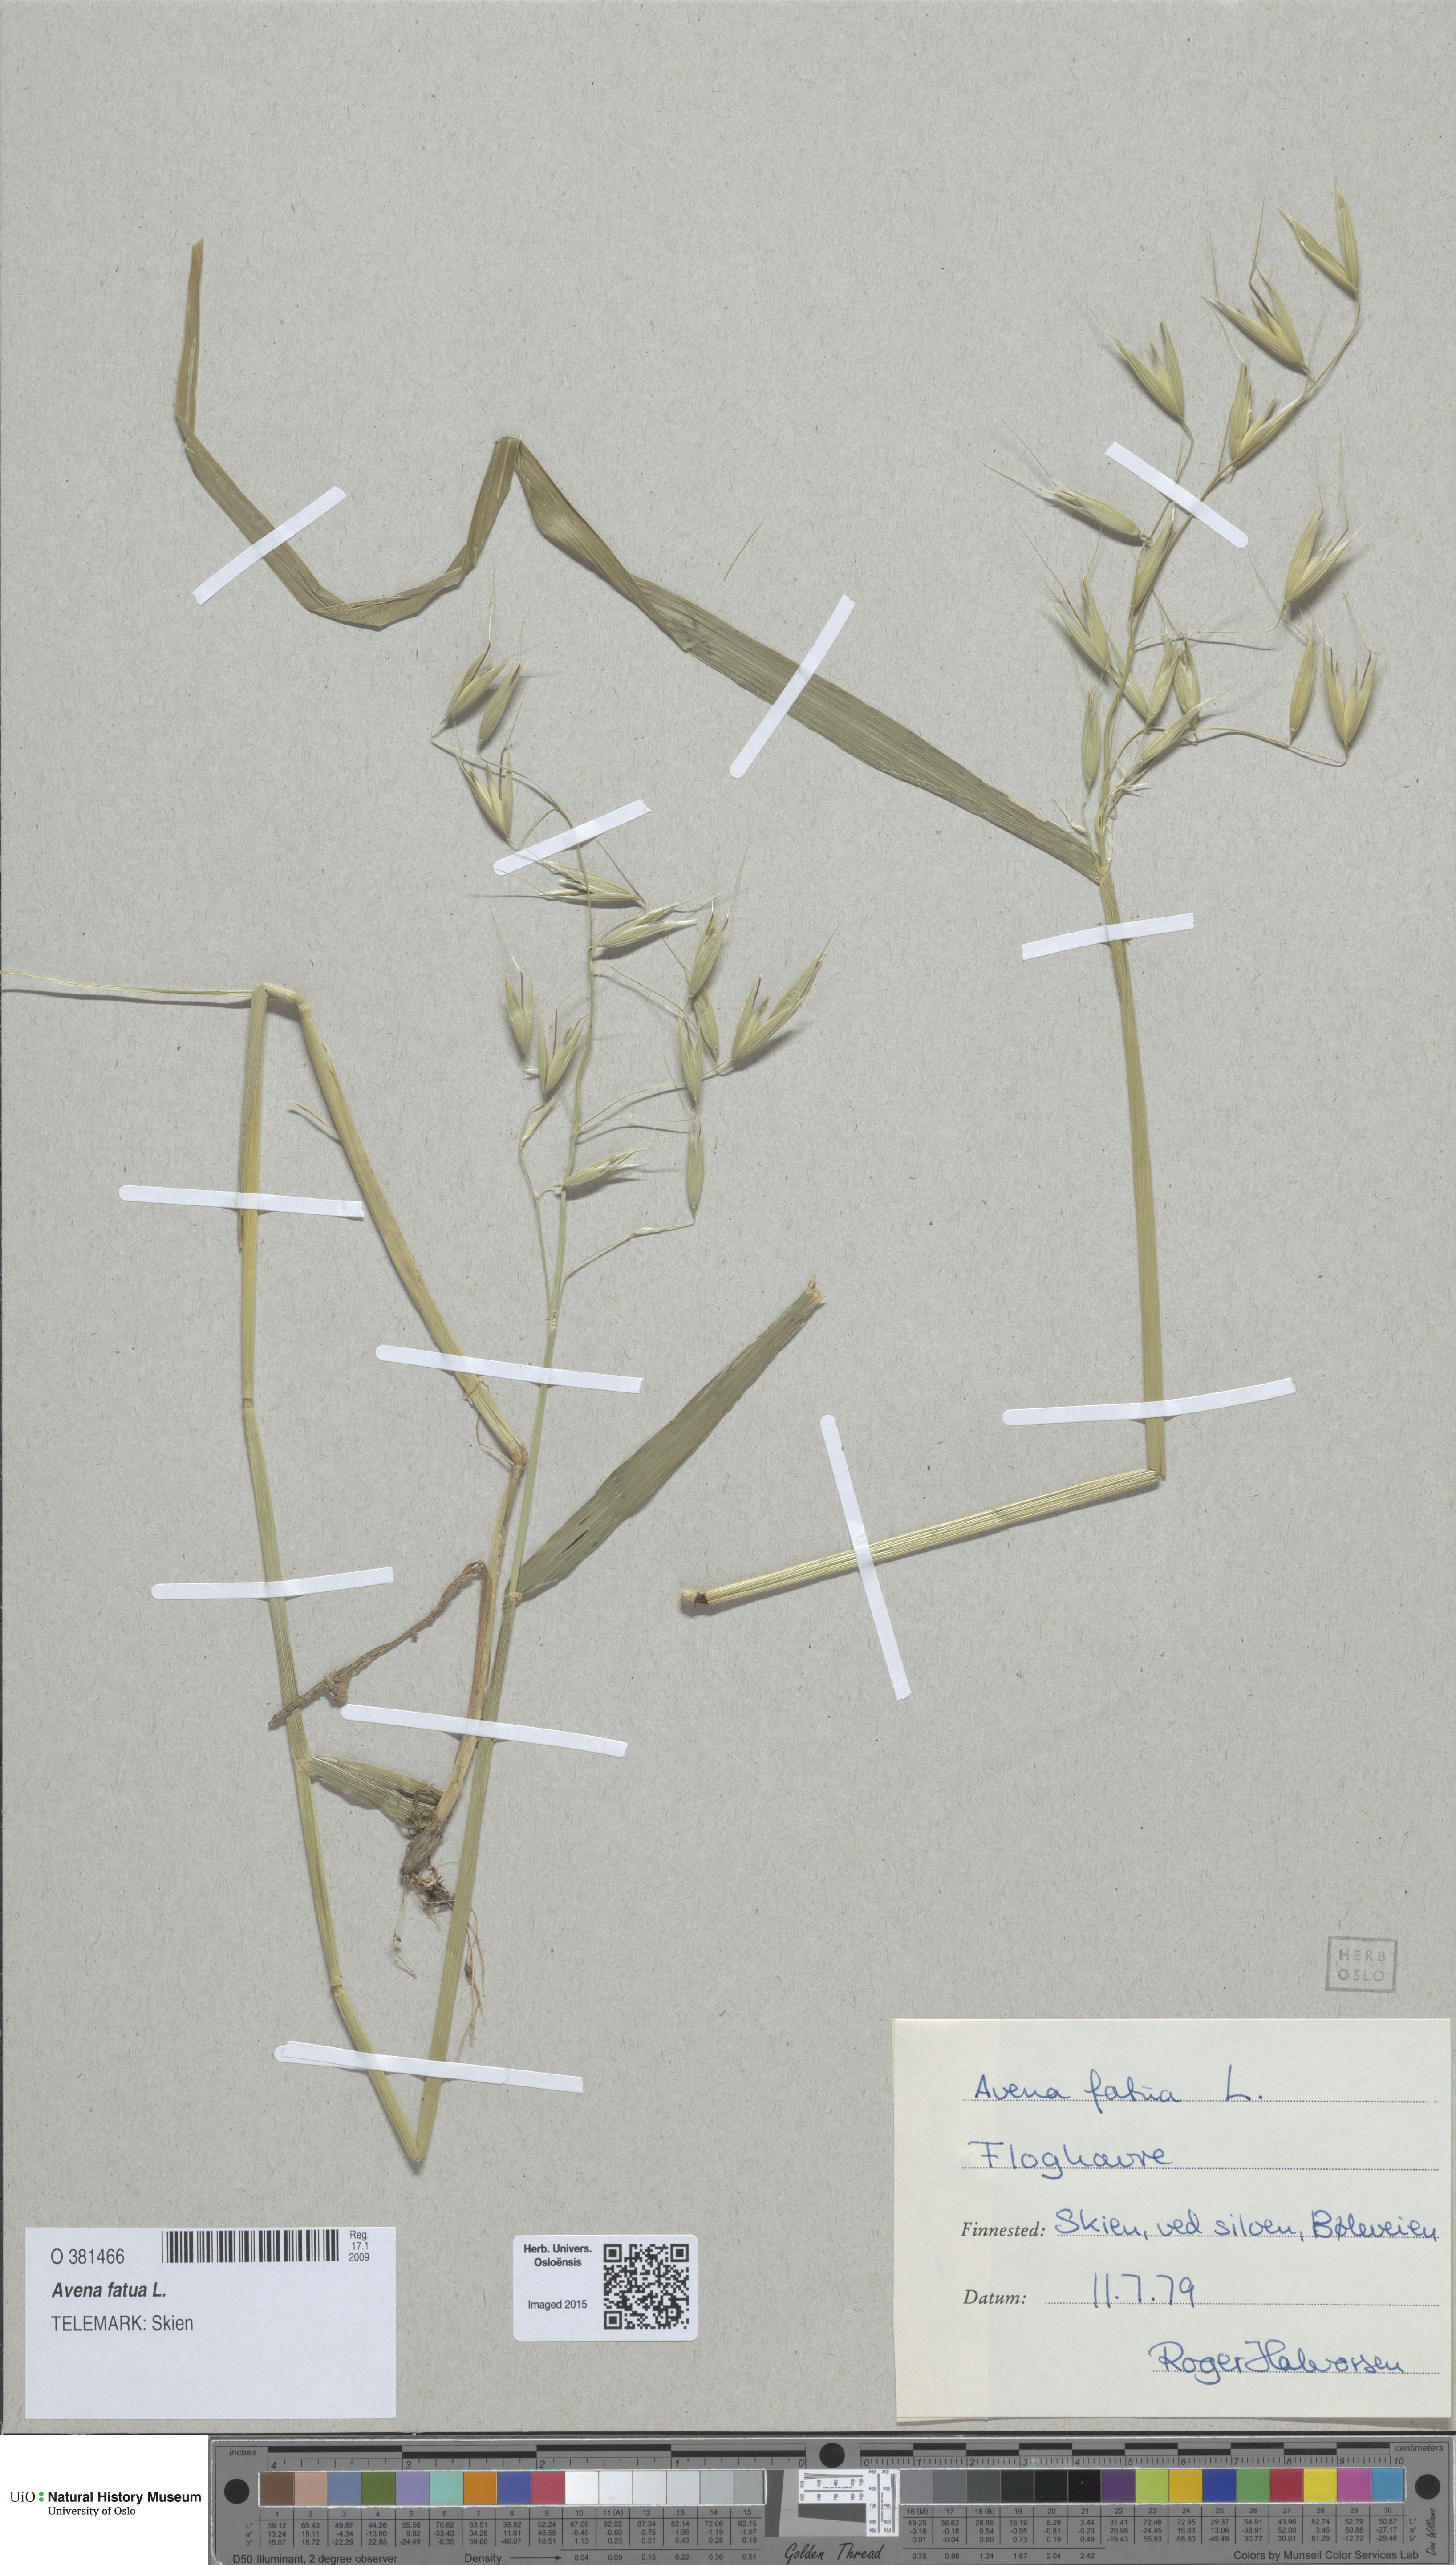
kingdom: Plantae
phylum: Tracheophyta
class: Liliopsida
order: Poales
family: Poaceae
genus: Avena
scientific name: Avena fatua
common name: Wild oat
